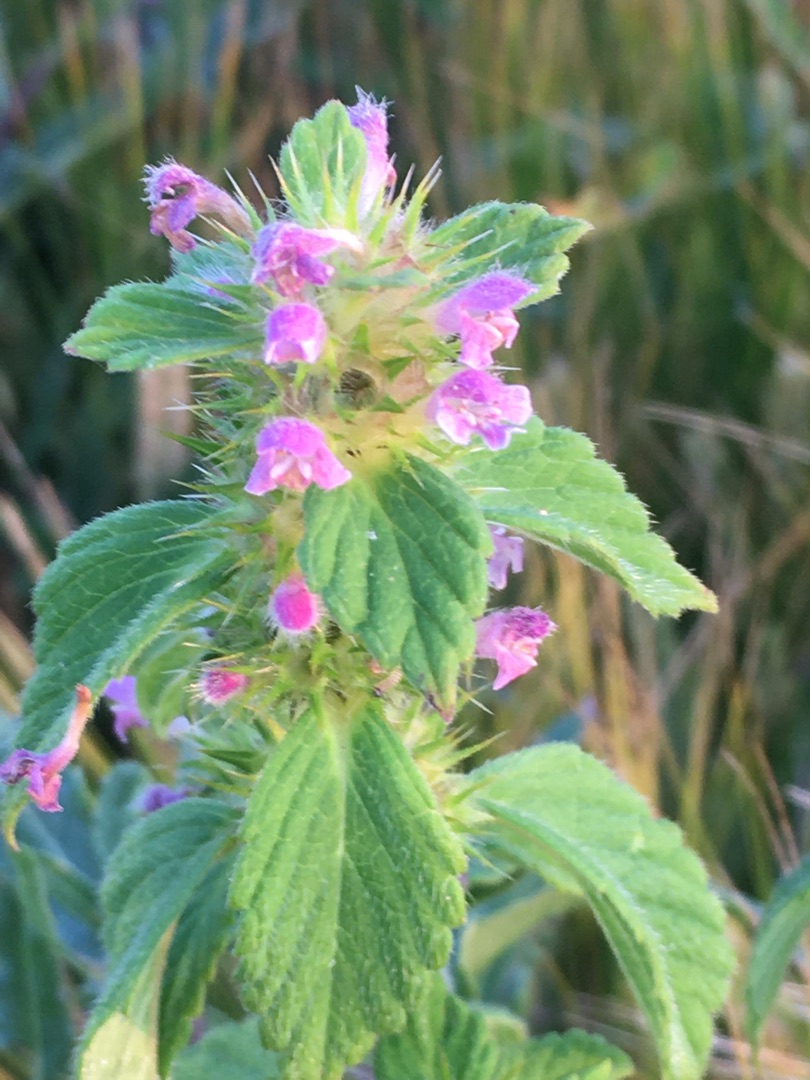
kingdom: Plantae
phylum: Tracheophyta
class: Magnoliopsida
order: Lamiales
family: Lamiaceae
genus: Galeopsis
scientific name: Galeopsis bifida
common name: Skov-hanekro
